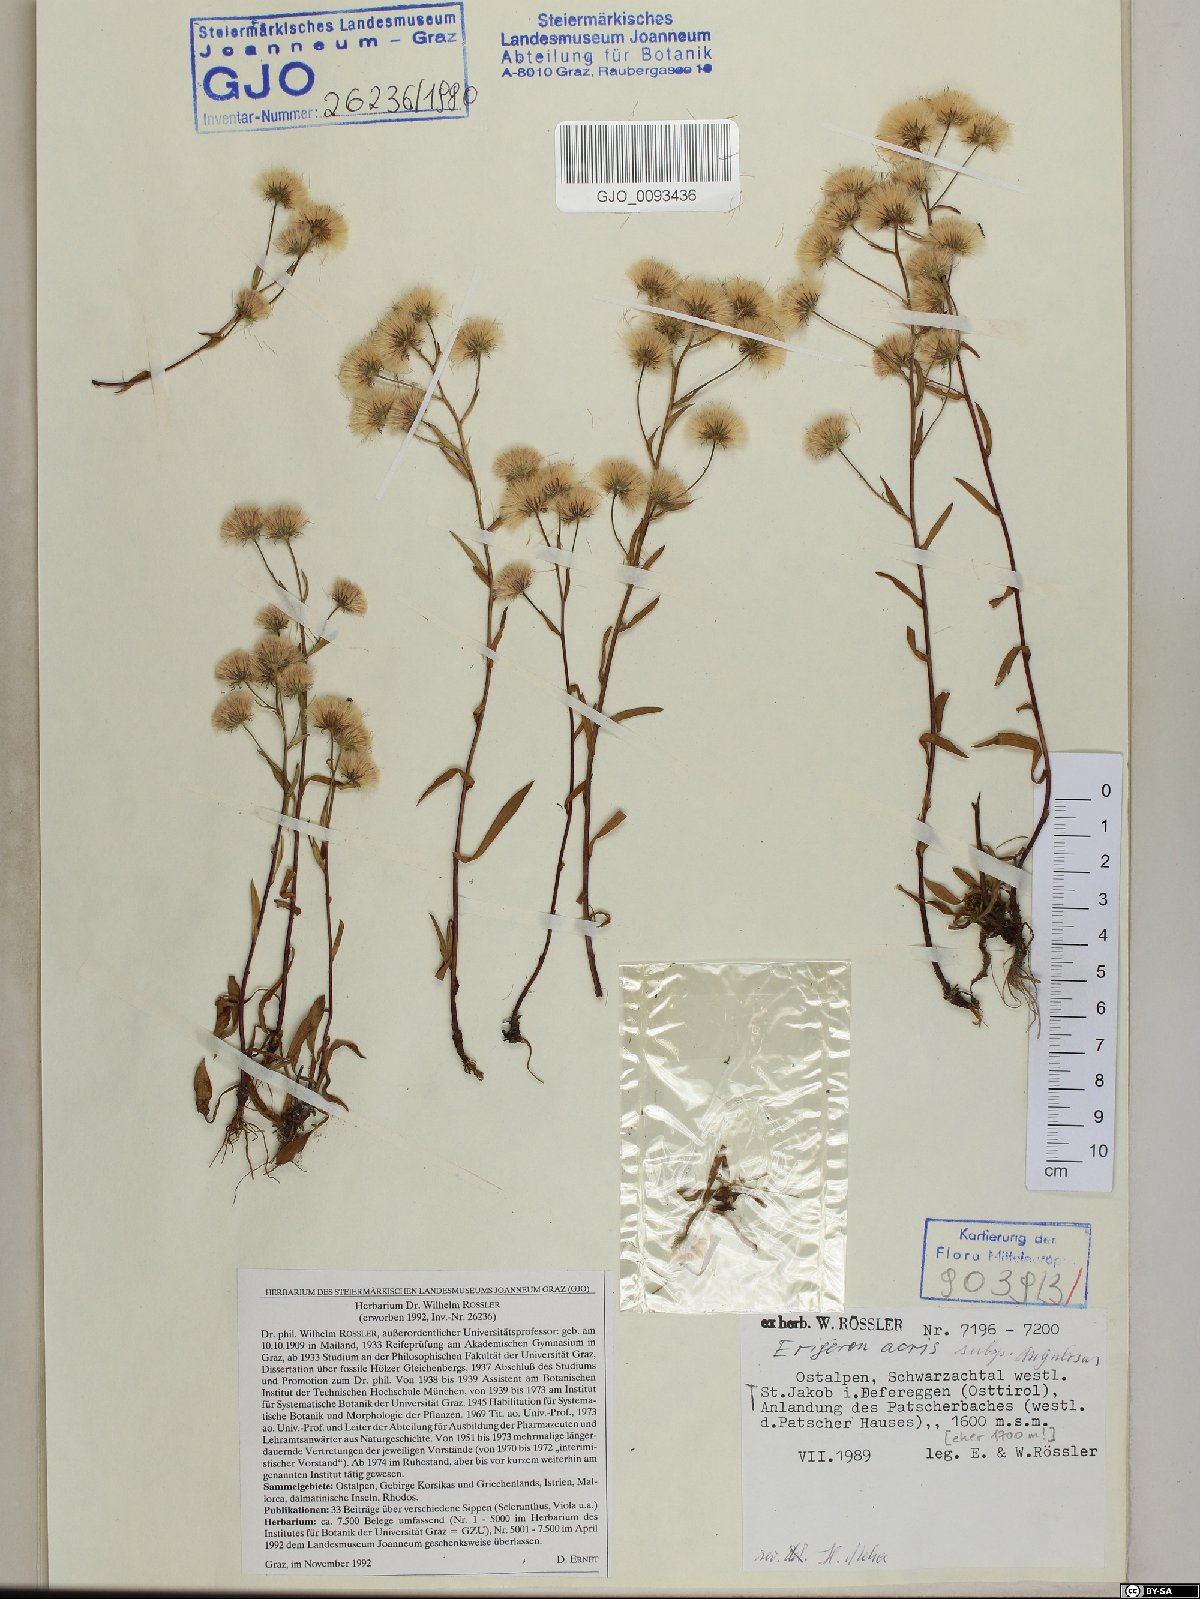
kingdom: Plantae
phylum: Tracheophyta
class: Magnoliopsida
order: Asterales
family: Asteraceae
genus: Erigeron
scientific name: Erigeron angulosus
